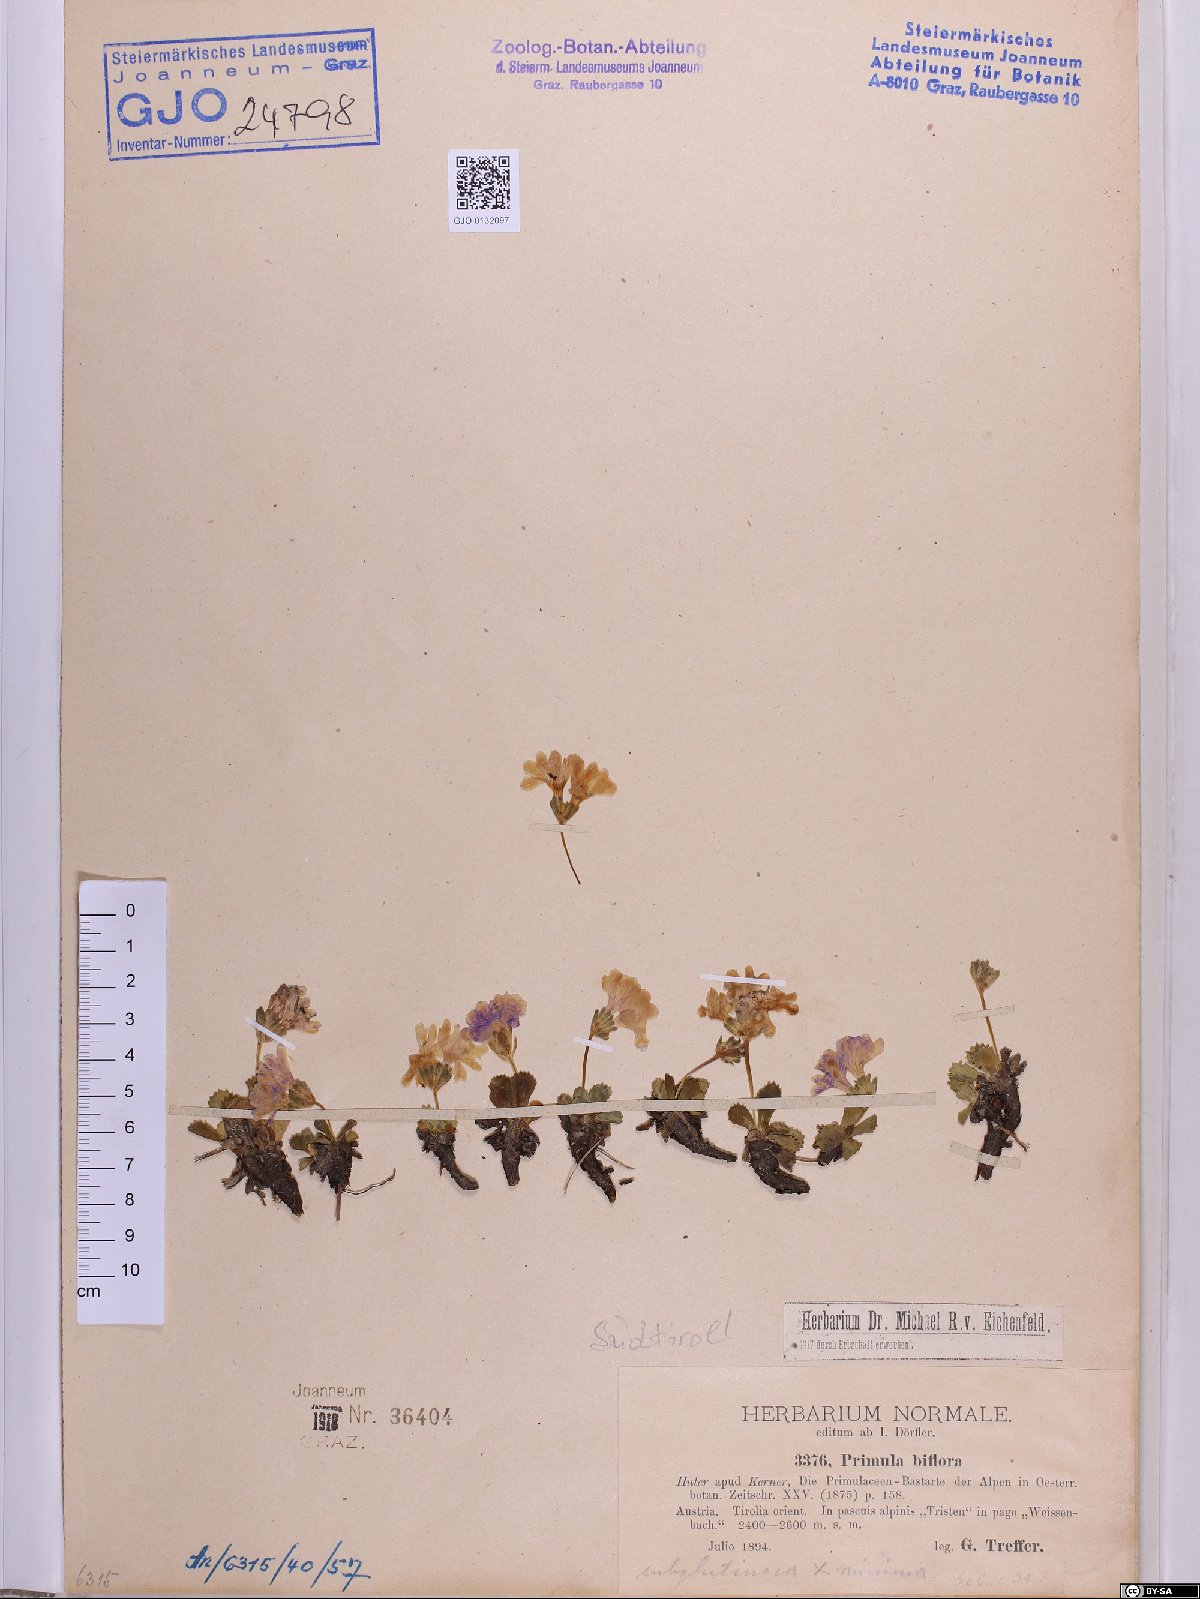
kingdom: Plantae
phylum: Tracheophyta
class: Magnoliopsida
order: Ericales
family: Primulaceae
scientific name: Primulaceae
